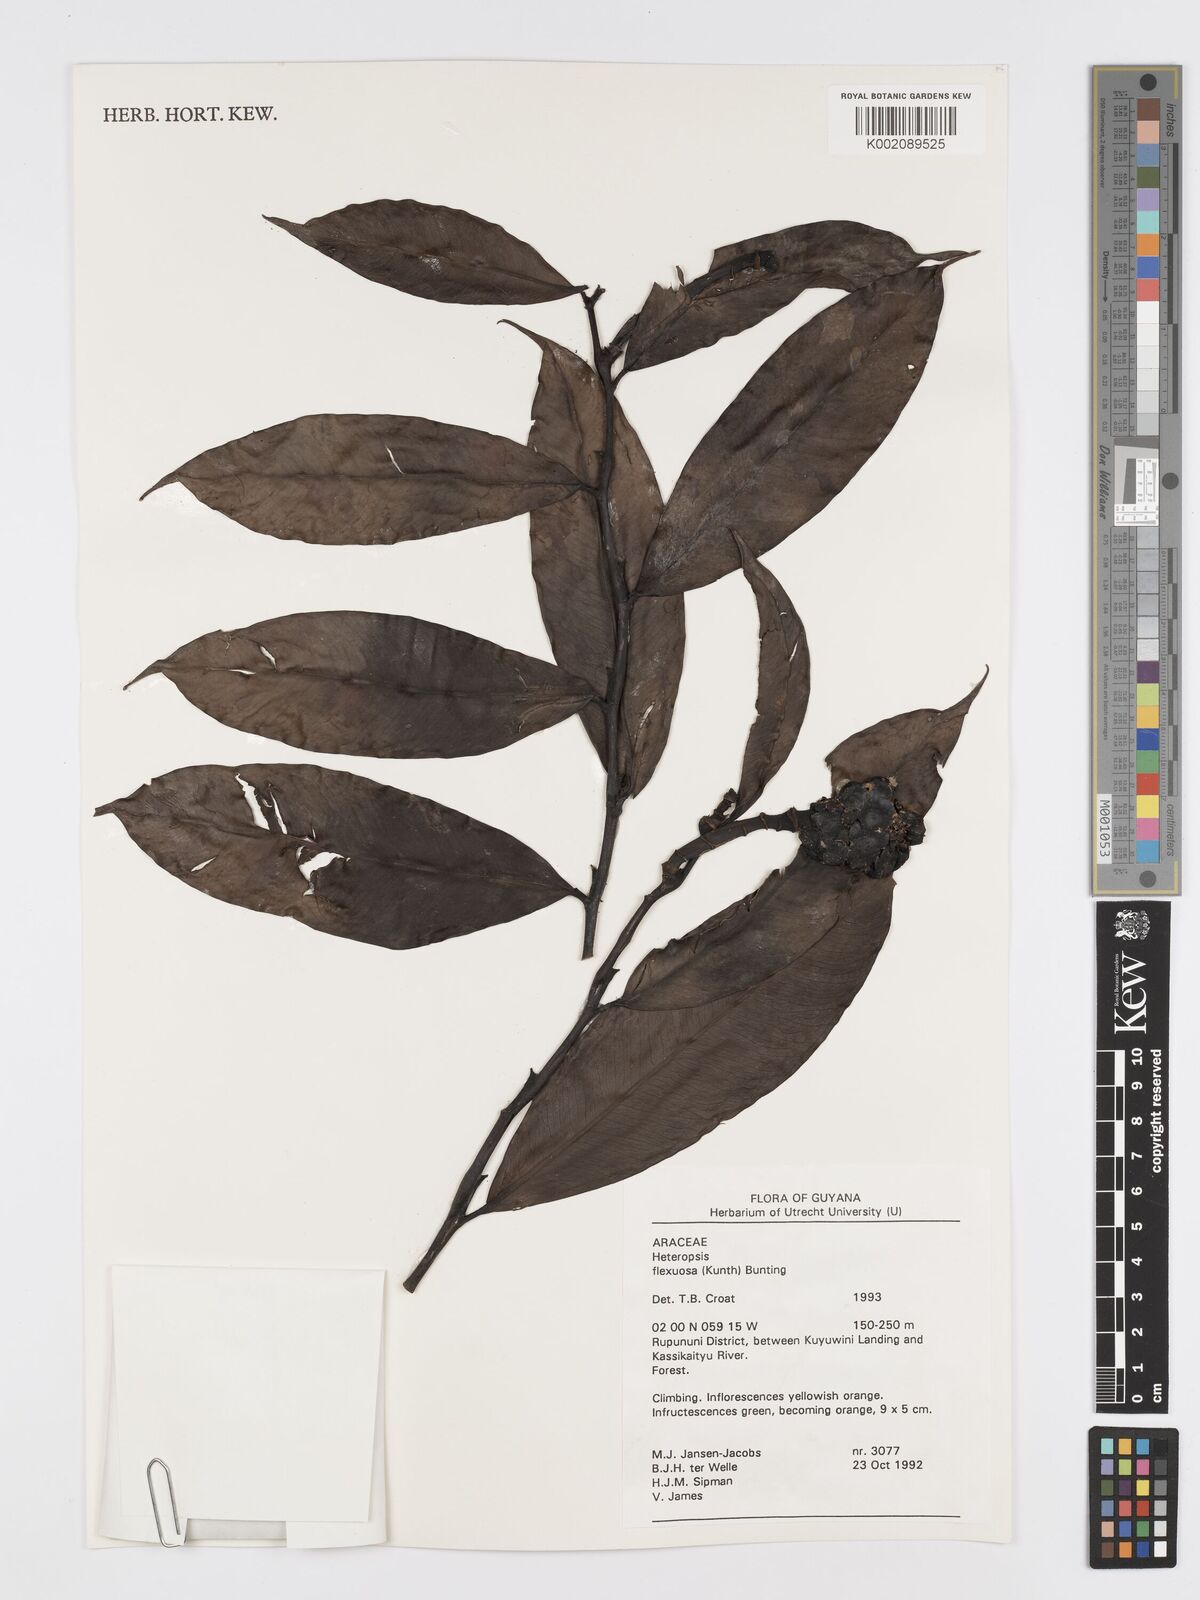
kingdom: Plantae
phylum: Tracheophyta
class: Liliopsida
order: Alismatales
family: Araceae
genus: Heteropsis
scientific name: Heteropsis flexuosa
